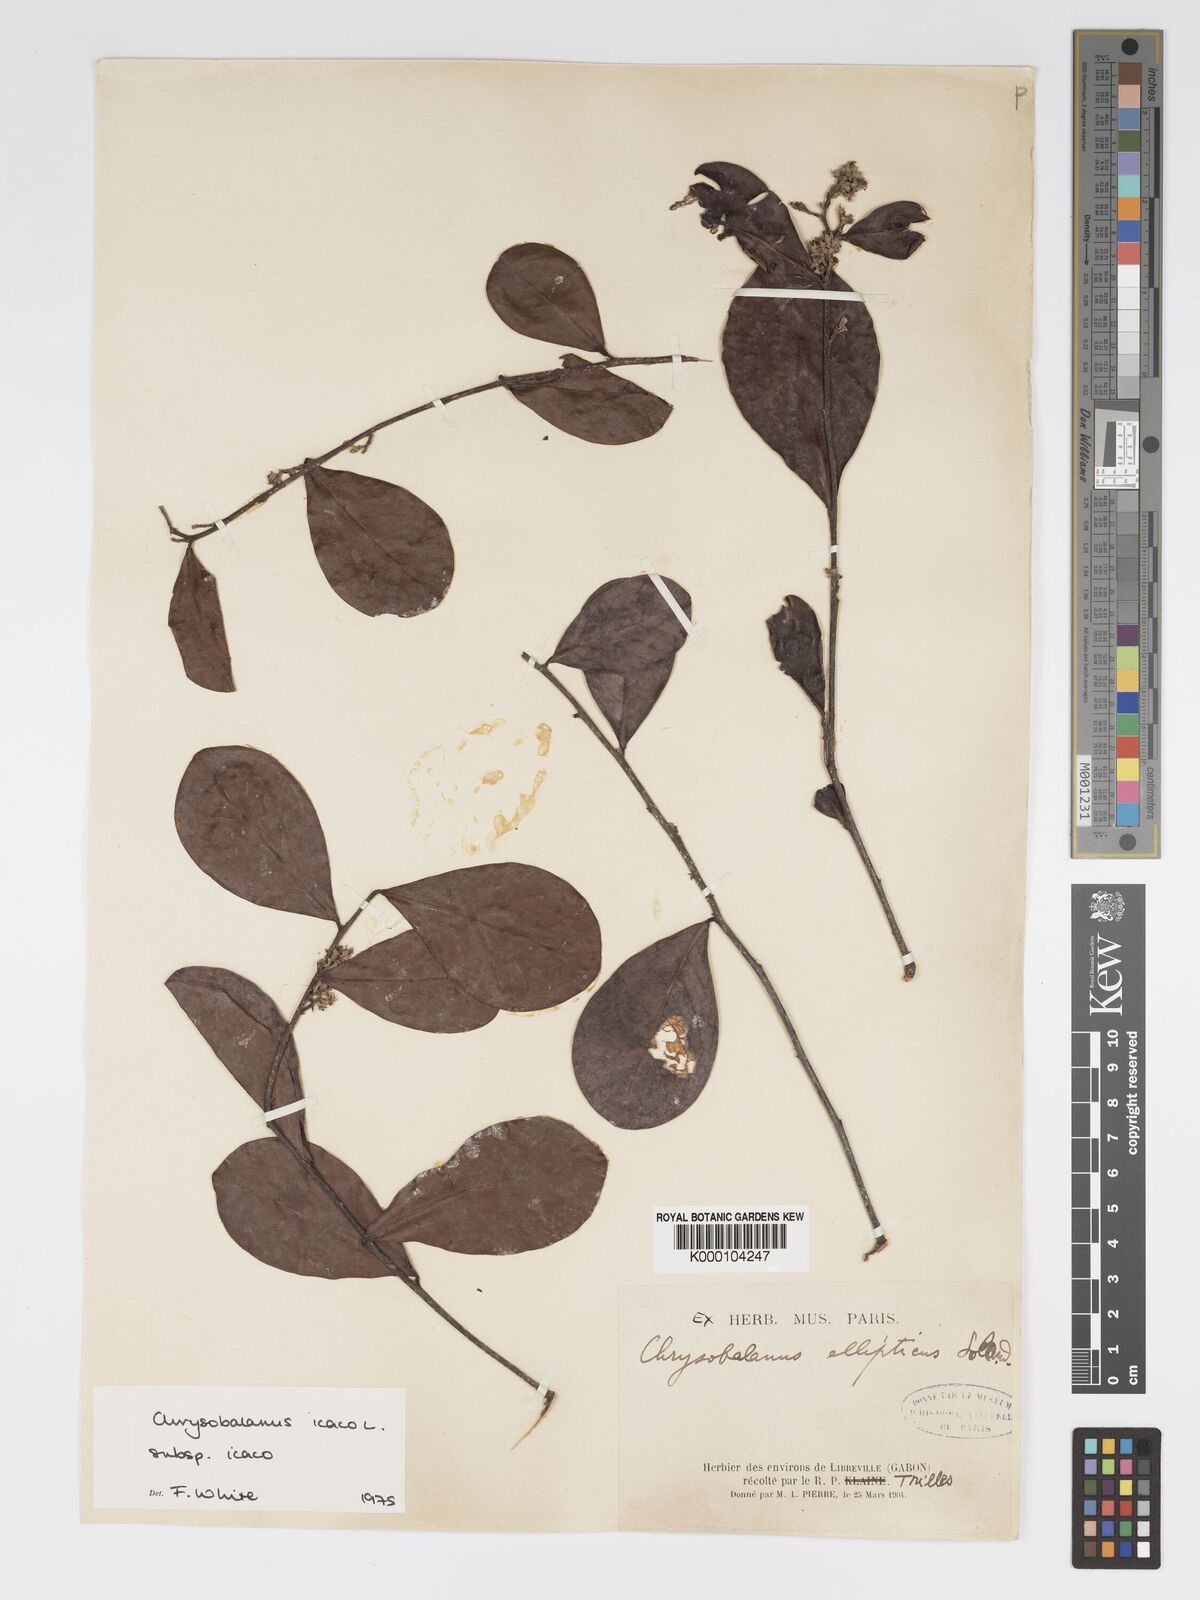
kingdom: Plantae
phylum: Tracheophyta
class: Magnoliopsida
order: Malpighiales
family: Chrysobalanaceae
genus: Chrysobalanus
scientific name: Chrysobalanus icaco
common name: Coco plum
